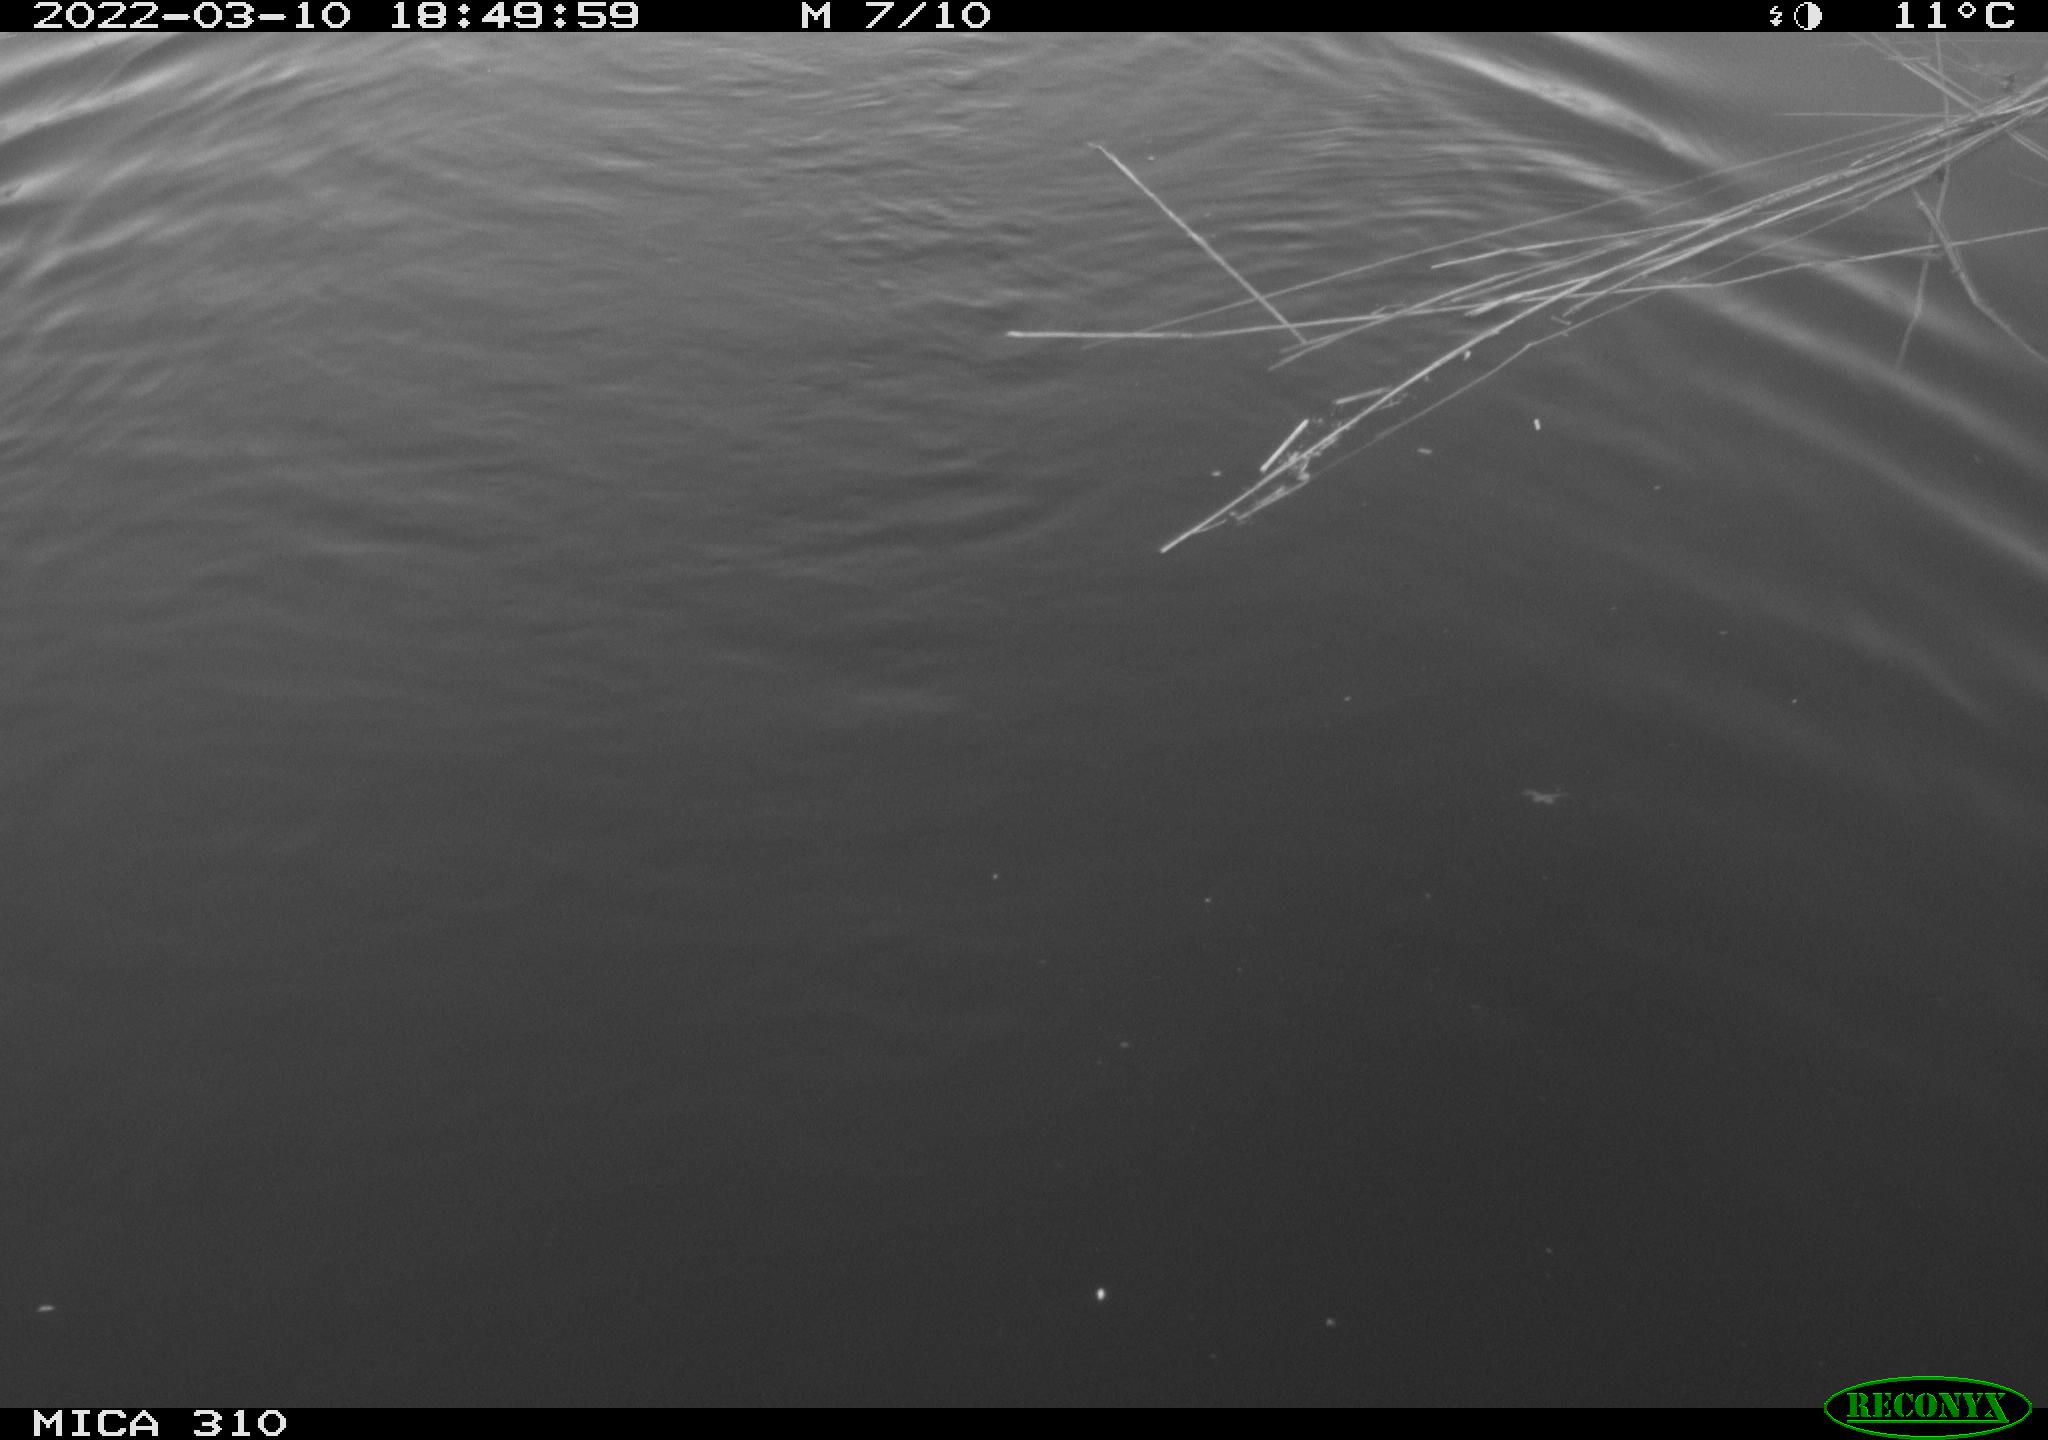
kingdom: Animalia
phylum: Chordata
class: Mammalia
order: Rodentia
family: Cricetidae
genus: Ondatra
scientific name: Ondatra zibethicus
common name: Muskrat
